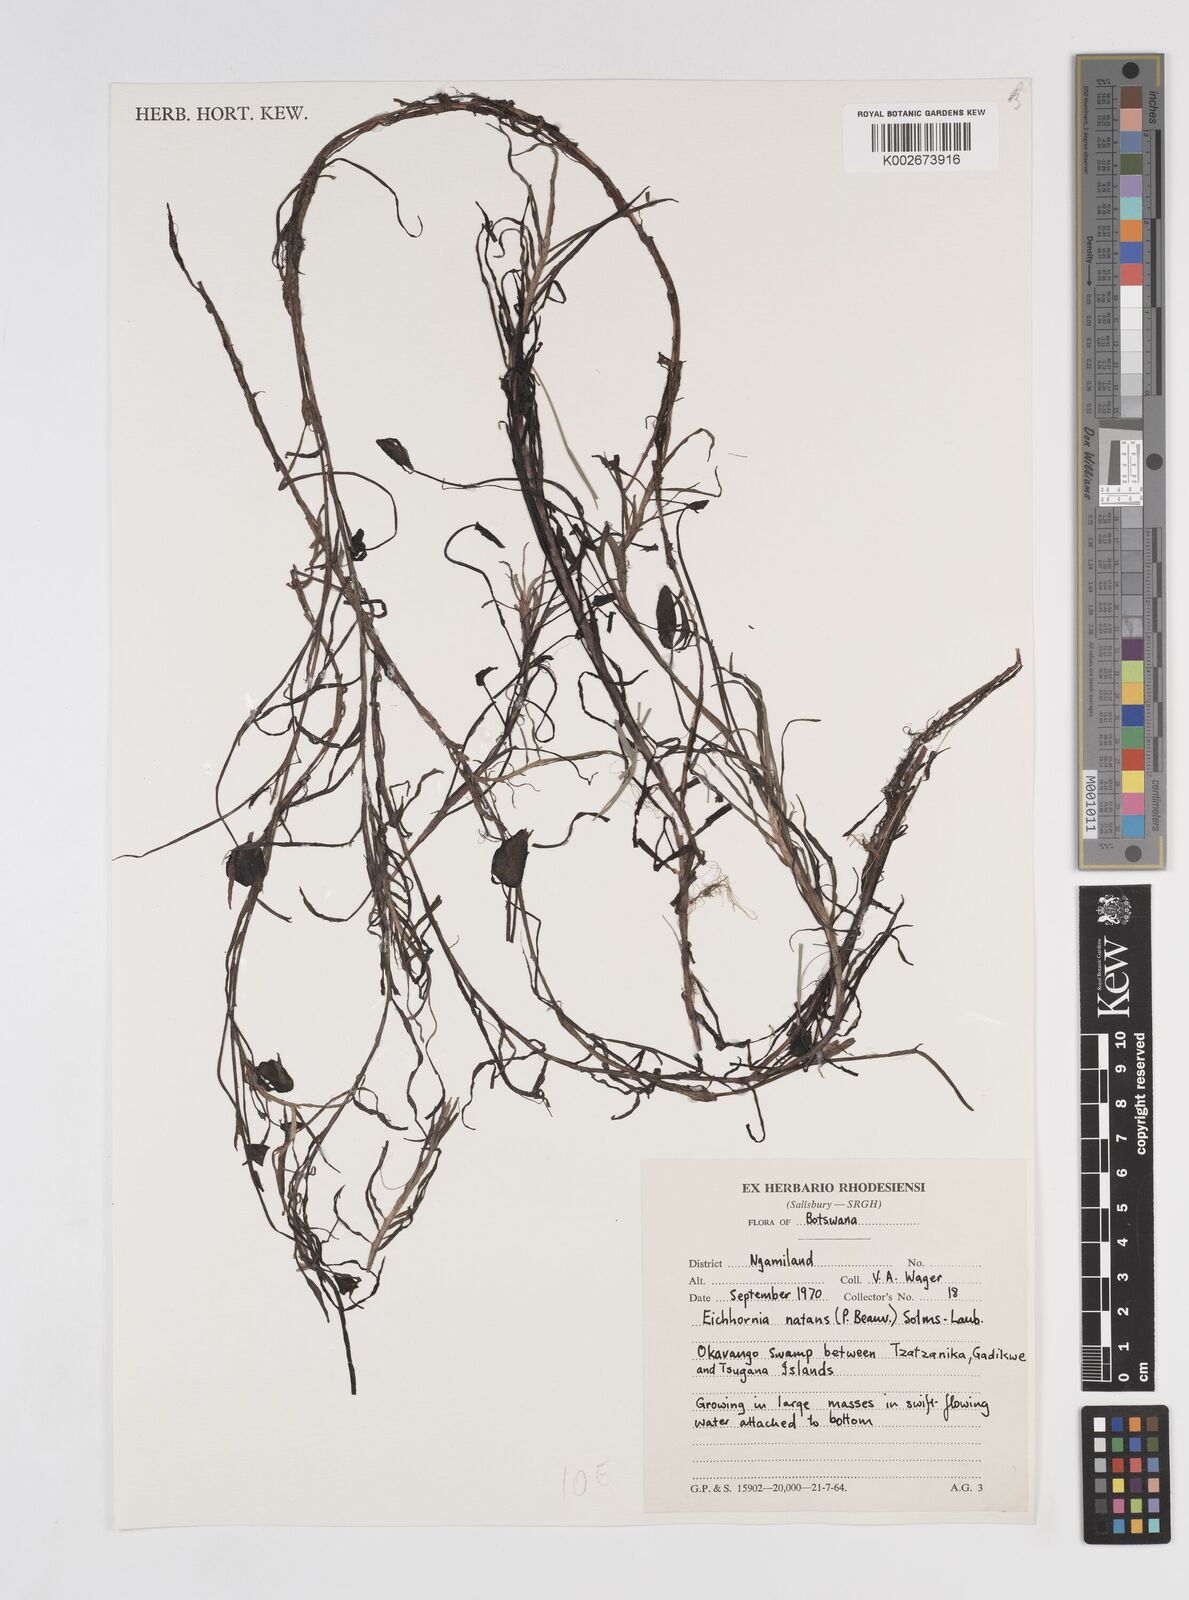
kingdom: Plantae
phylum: Tracheophyta
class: Liliopsida
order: Commelinales
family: Pontederiaceae
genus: Pontederia
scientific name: Pontederia natans
